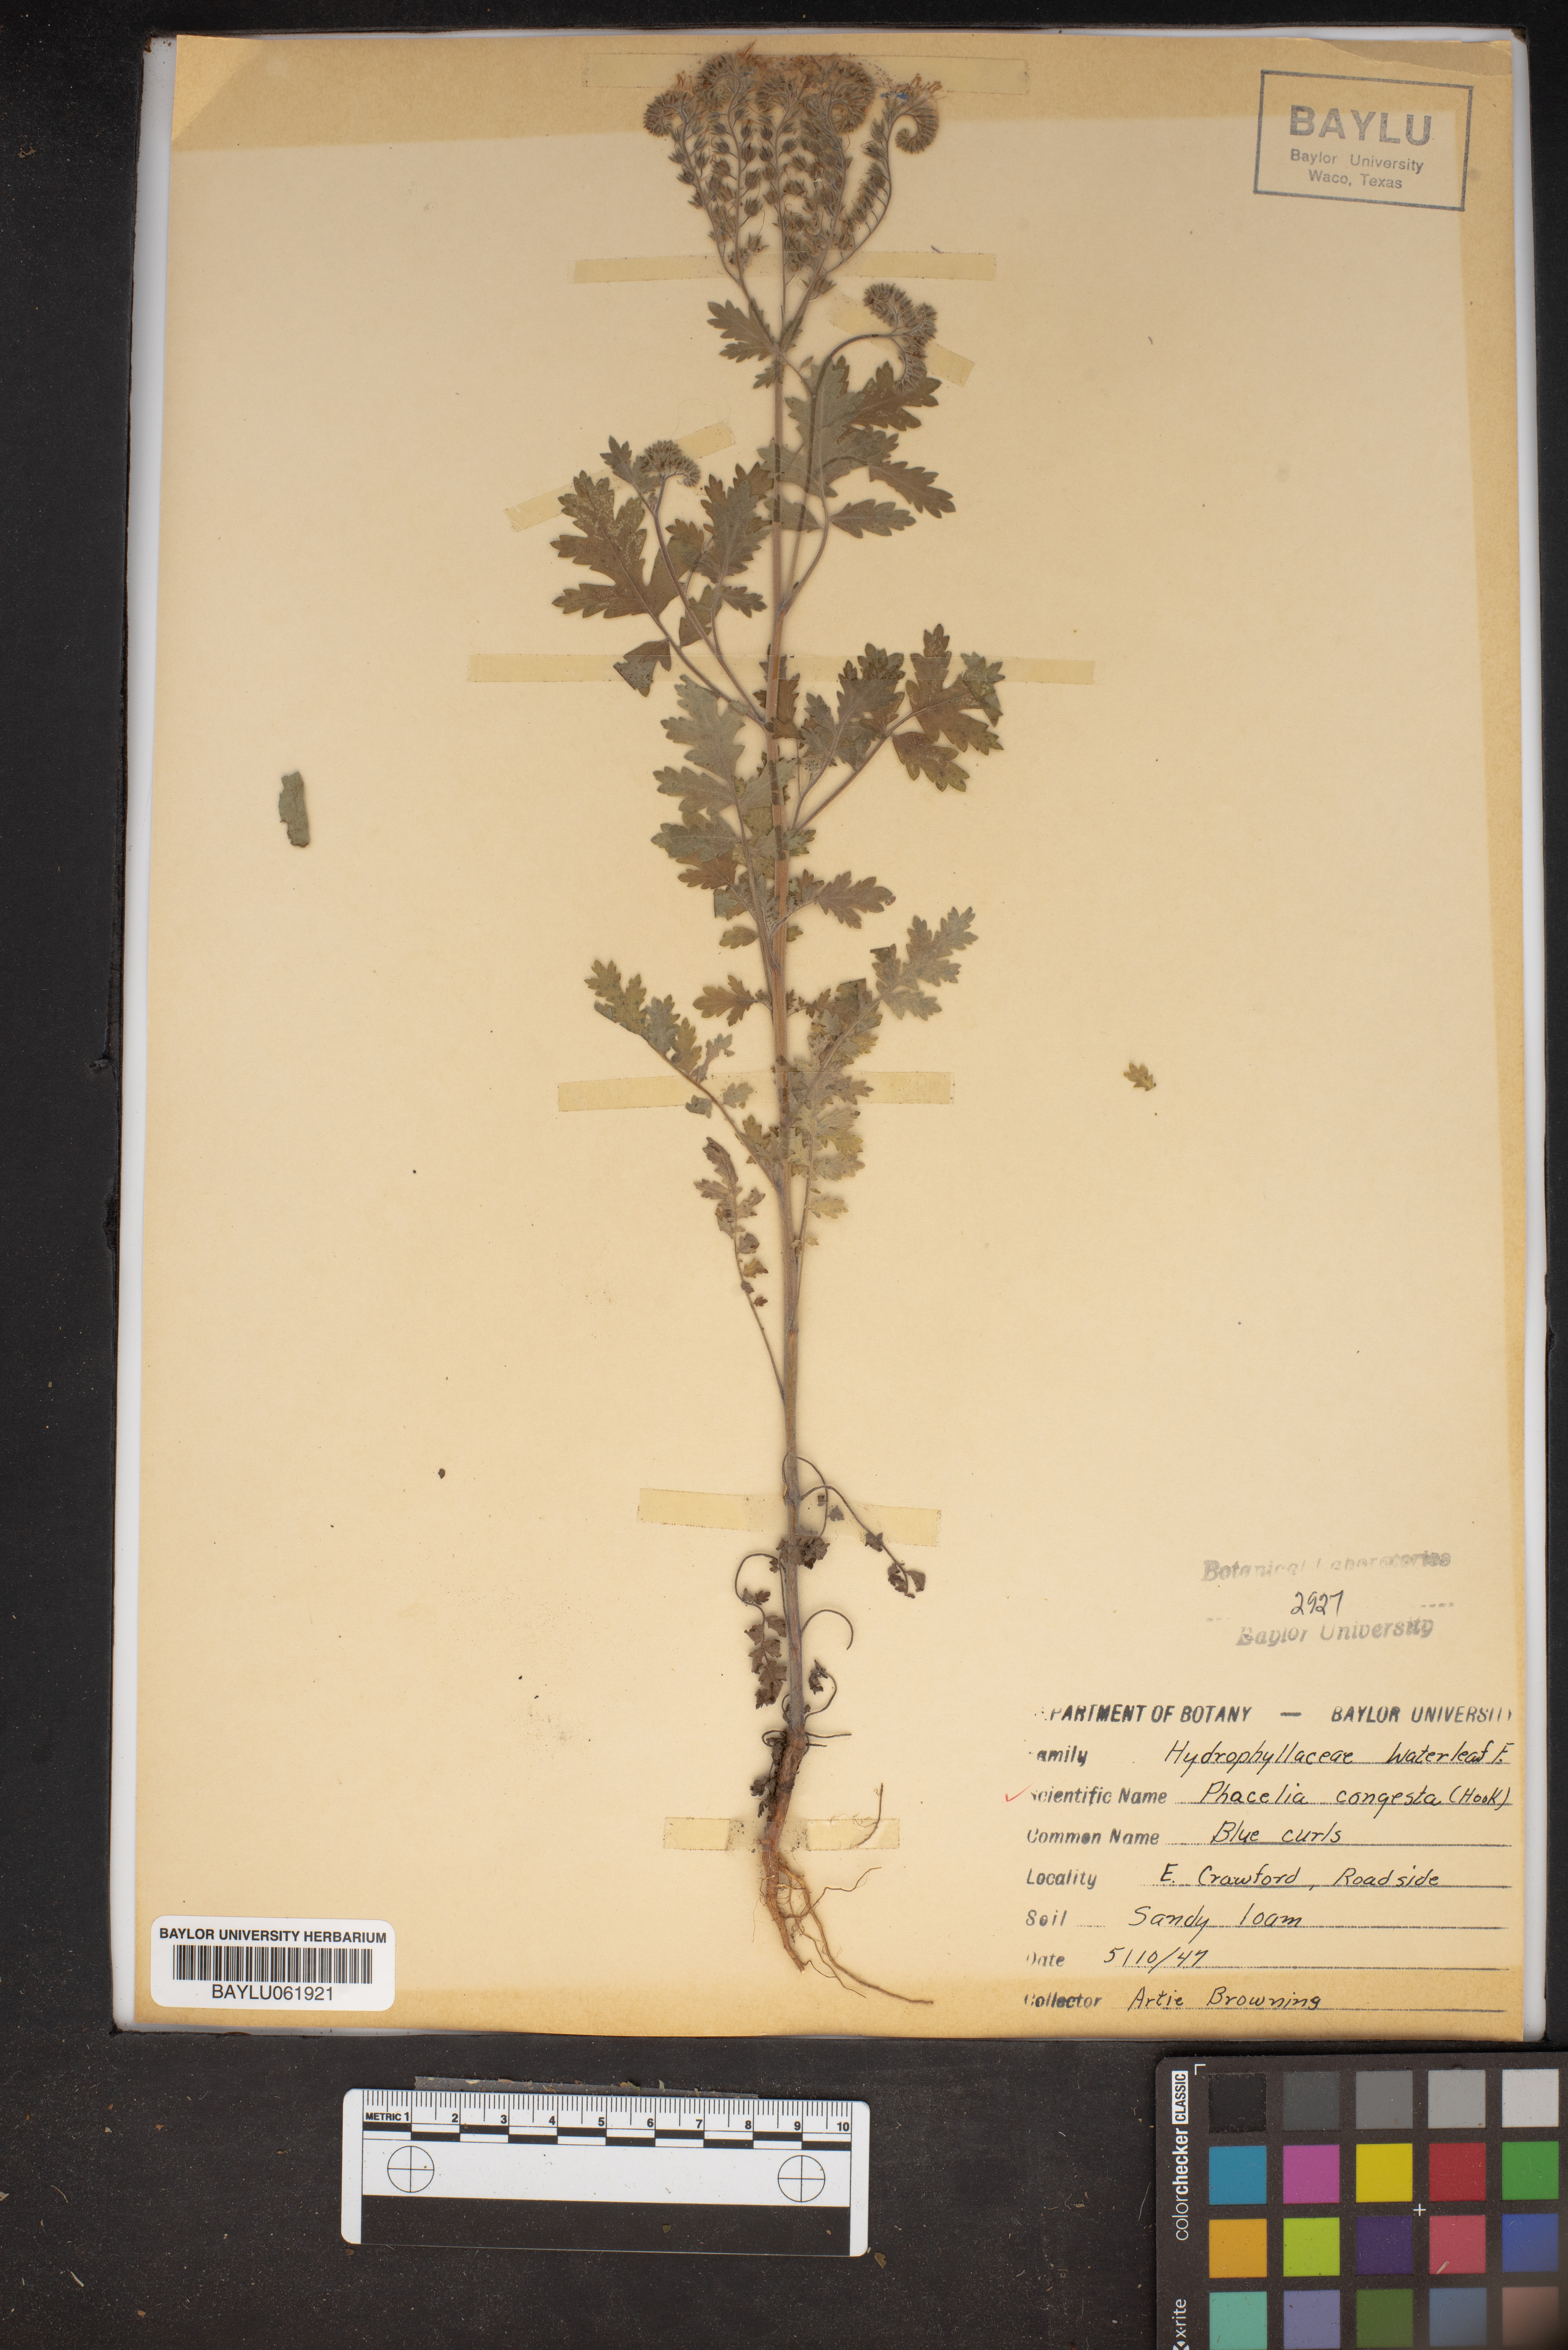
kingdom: Plantae
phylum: Tracheophyta
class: Magnoliopsida
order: Boraginales
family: Hydrophyllaceae
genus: Phacelia
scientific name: Phacelia congesta
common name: Blue curls
